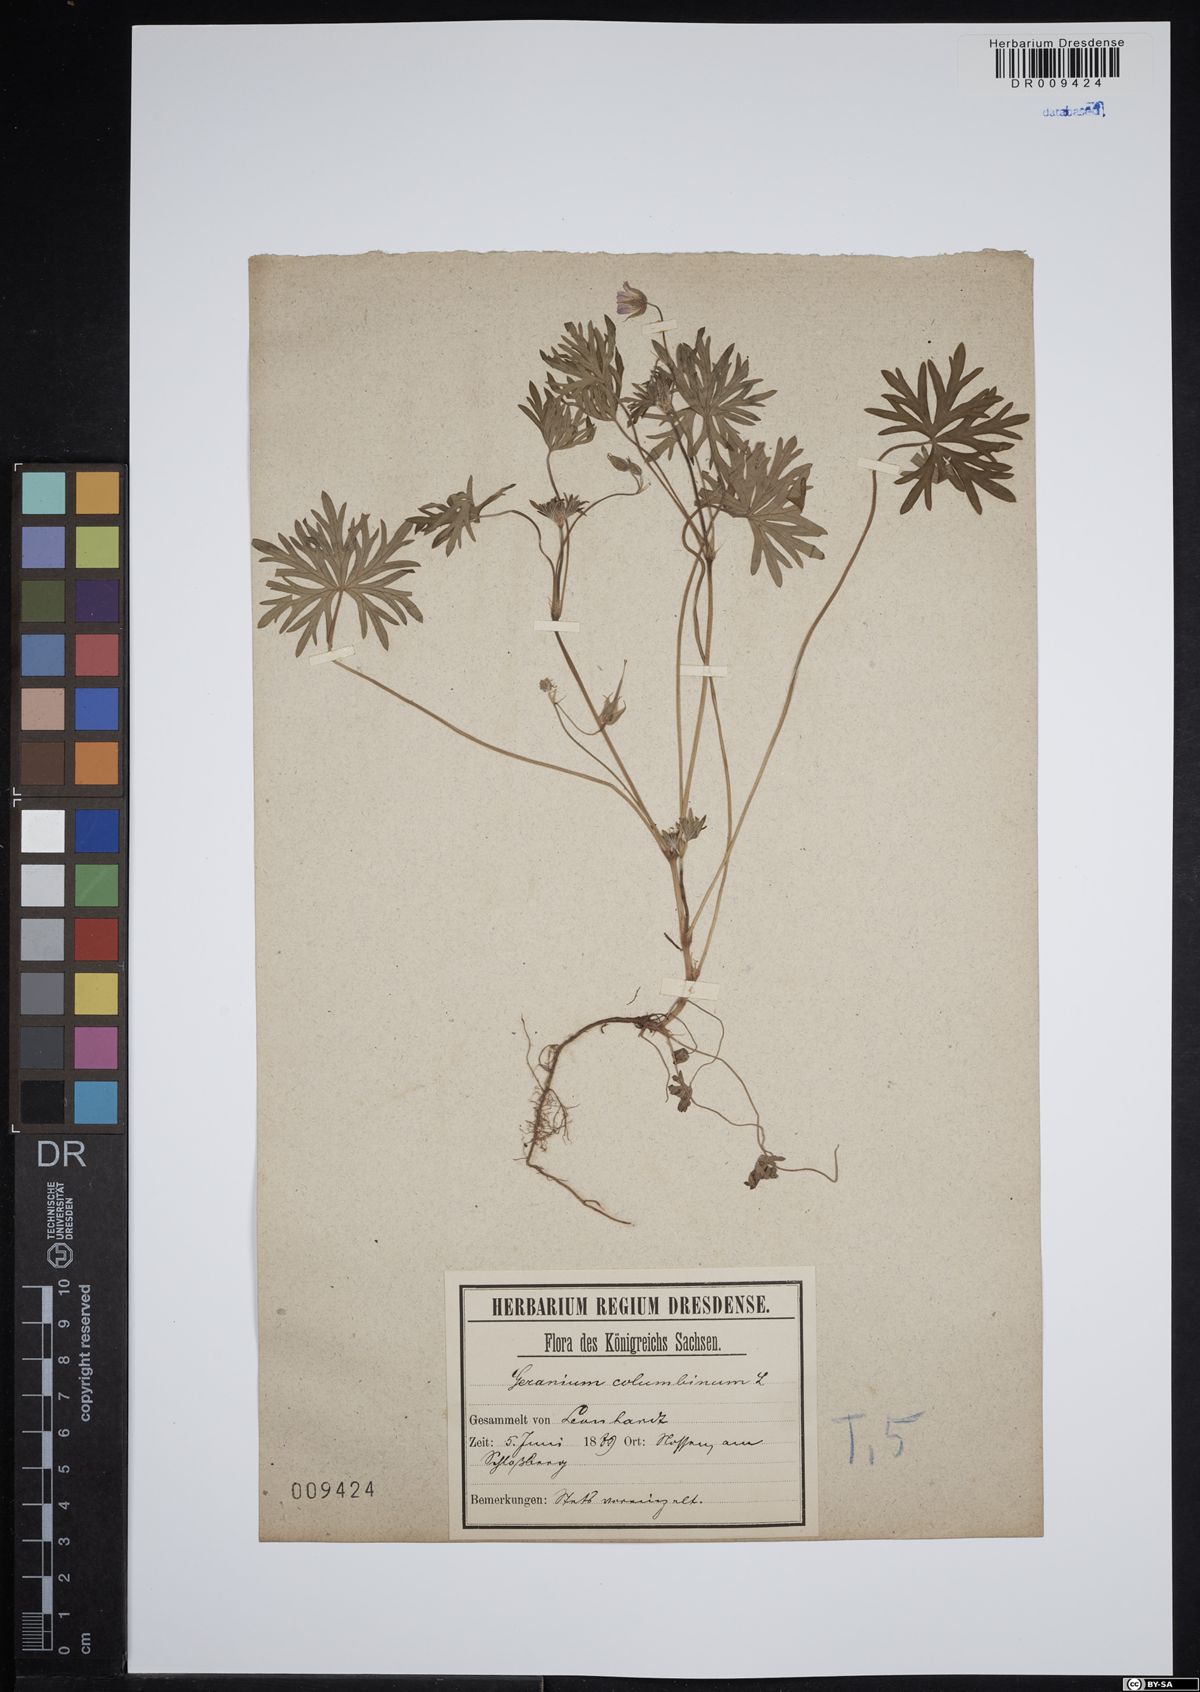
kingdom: Plantae
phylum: Tracheophyta
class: Magnoliopsida
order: Geraniales
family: Geraniaceae
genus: Geranium
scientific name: Geranium columbinum
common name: Long-stalked crane's-bill
